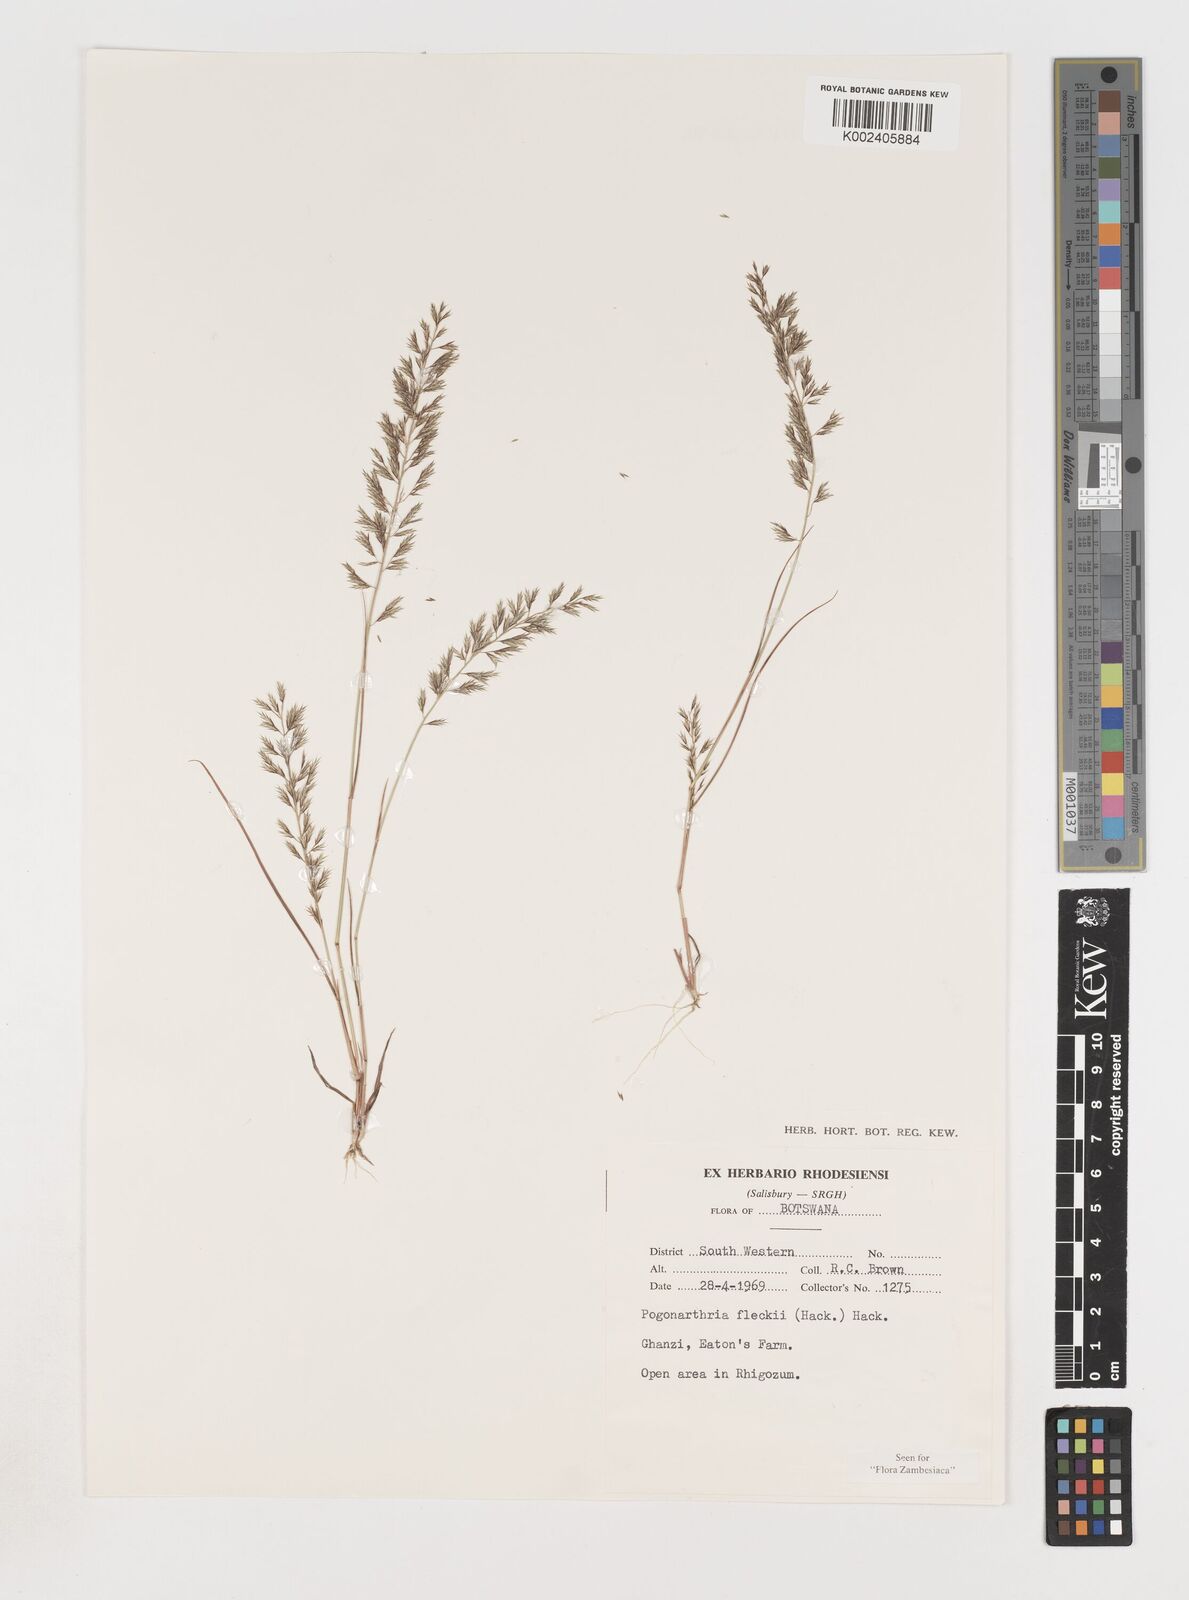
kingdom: Plantae
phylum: Tracheophyta
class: Liliopsida
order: Poales
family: Poaceae
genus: Pogonarthria
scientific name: Pogonarthria fleckii
